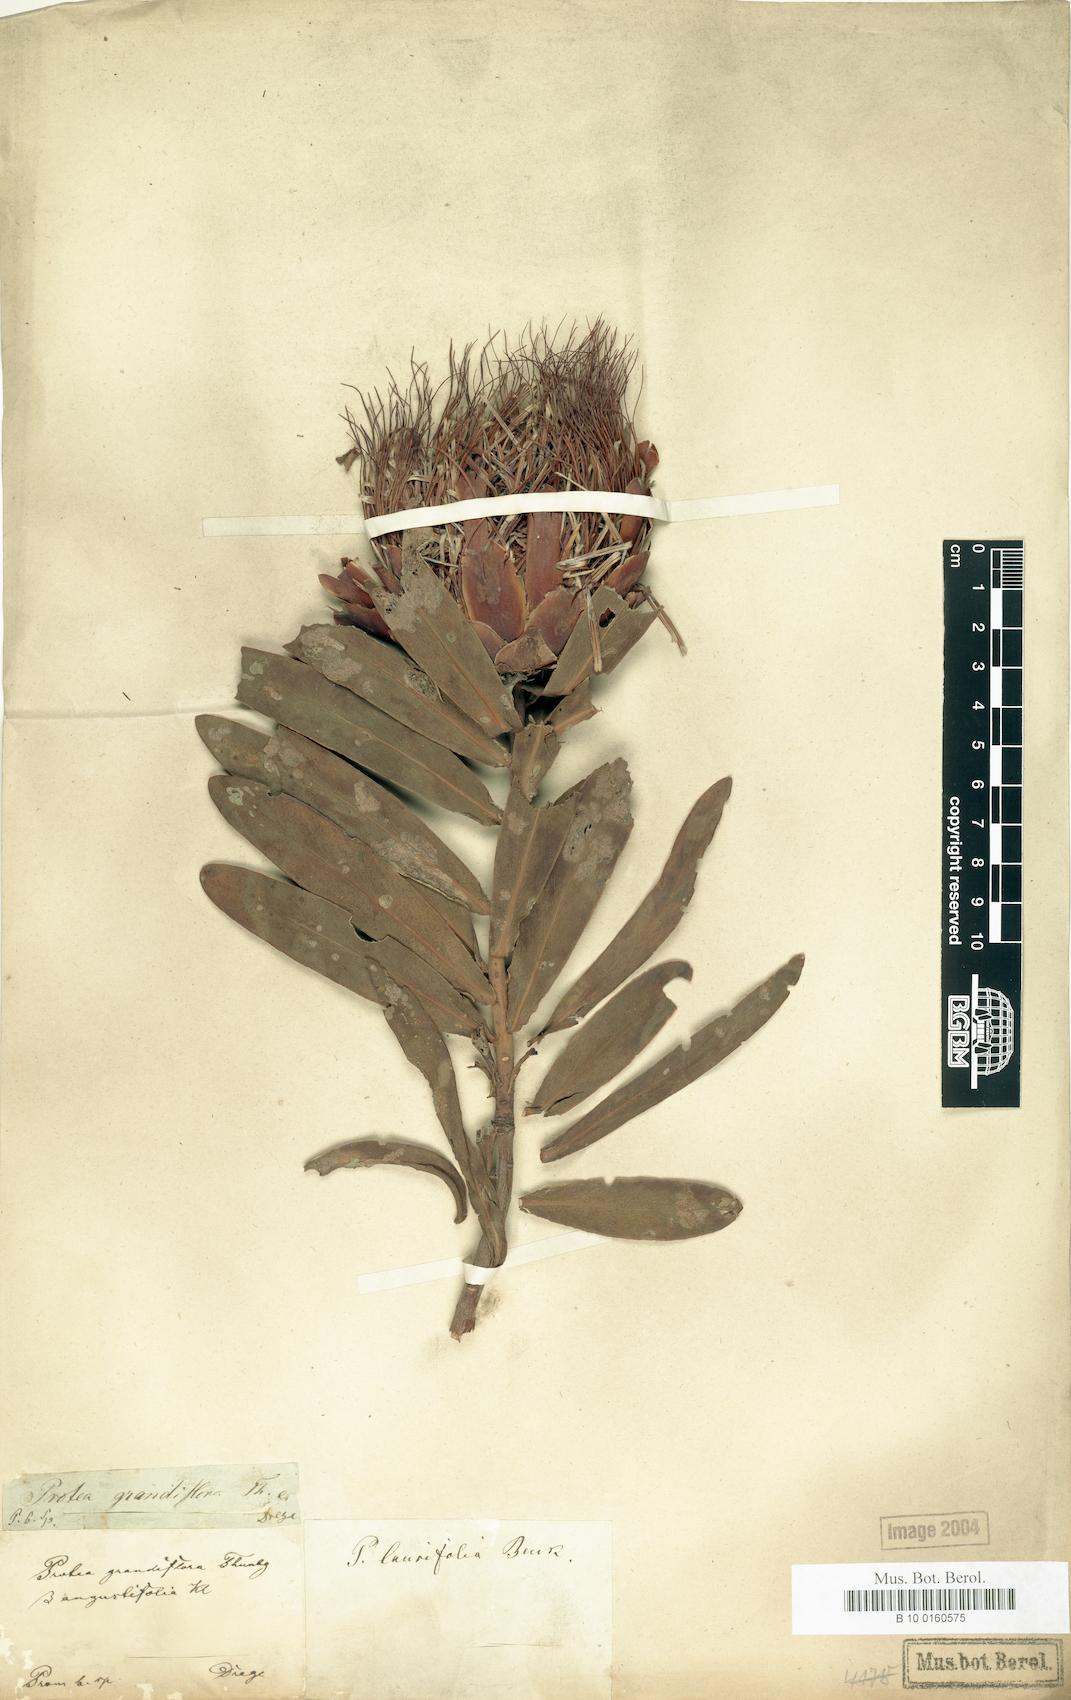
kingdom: Plantae
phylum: Tracheophyta
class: Magnoliopsida
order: Proteales
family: Proteaceae
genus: Protea
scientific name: Protea laurifolia
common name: Grey-leaf sugarbsh
